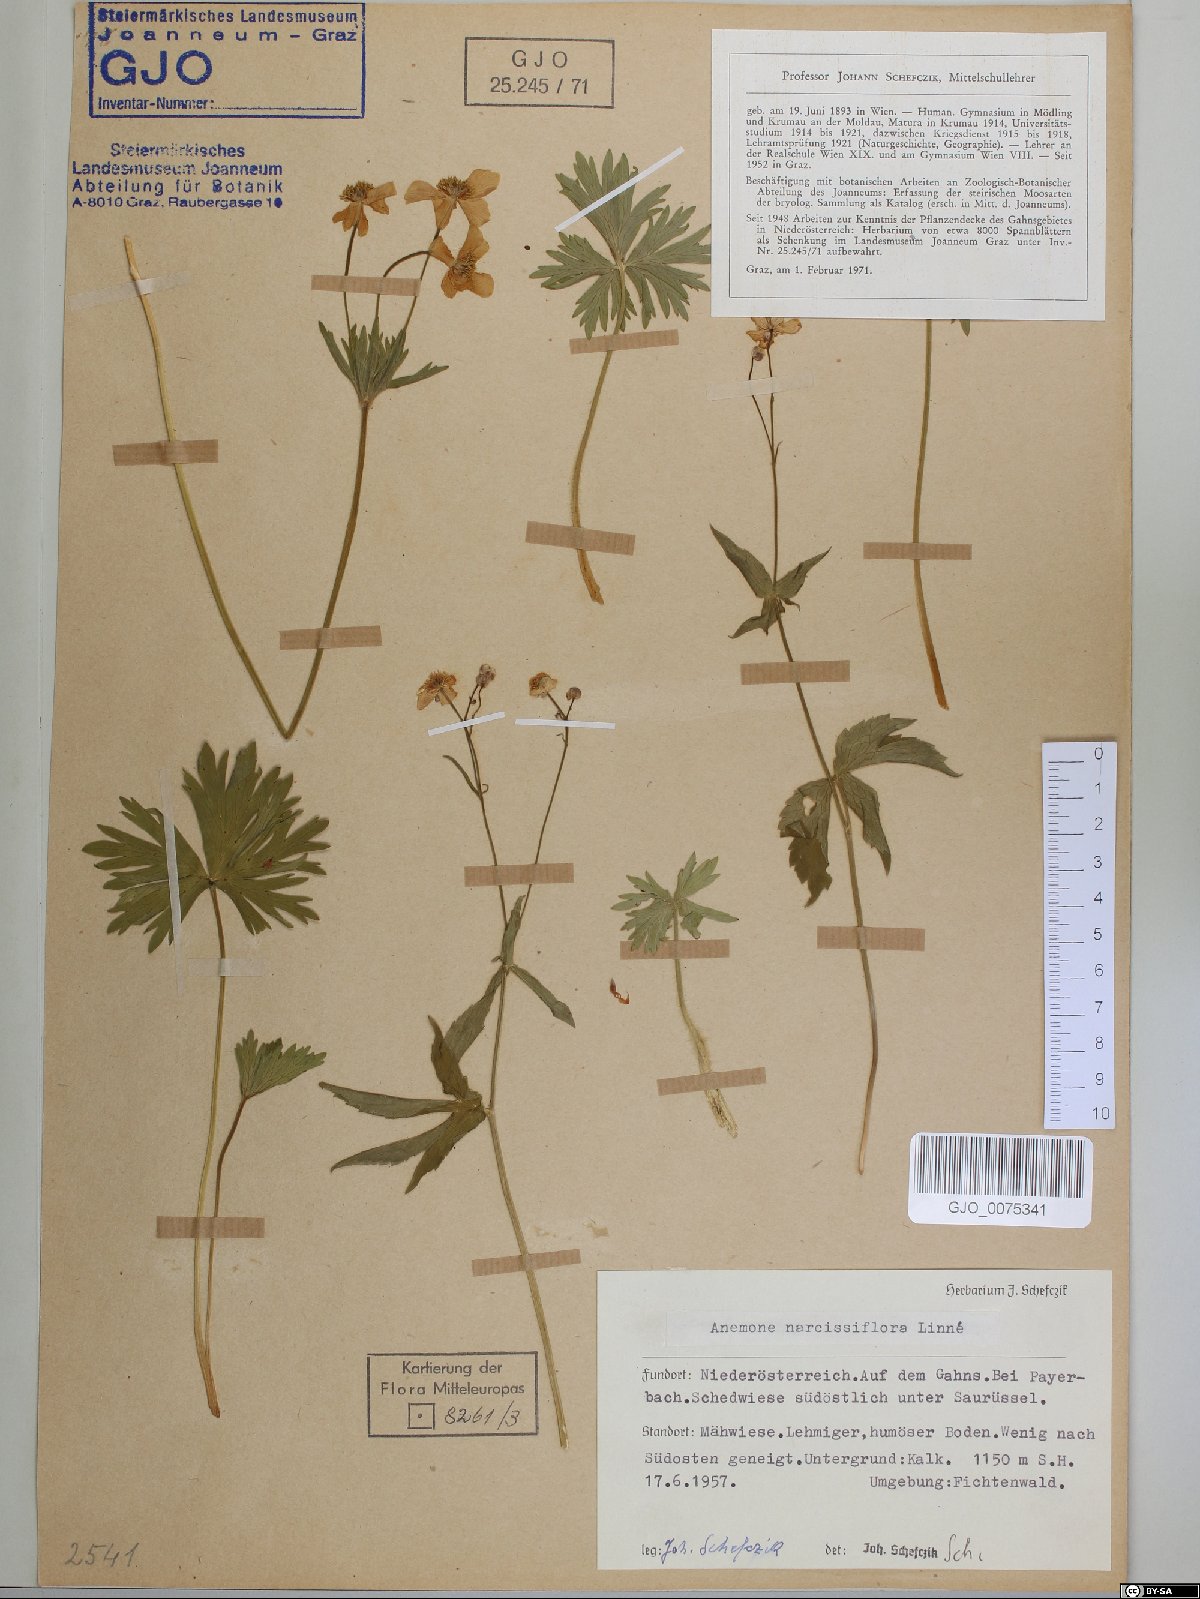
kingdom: Plantae
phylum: Tracheophyta
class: Magnoliopsida
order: Ranunculales
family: Ranunculaceae
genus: Anemonastrum
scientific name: Anemonastrum narcissiflorum
